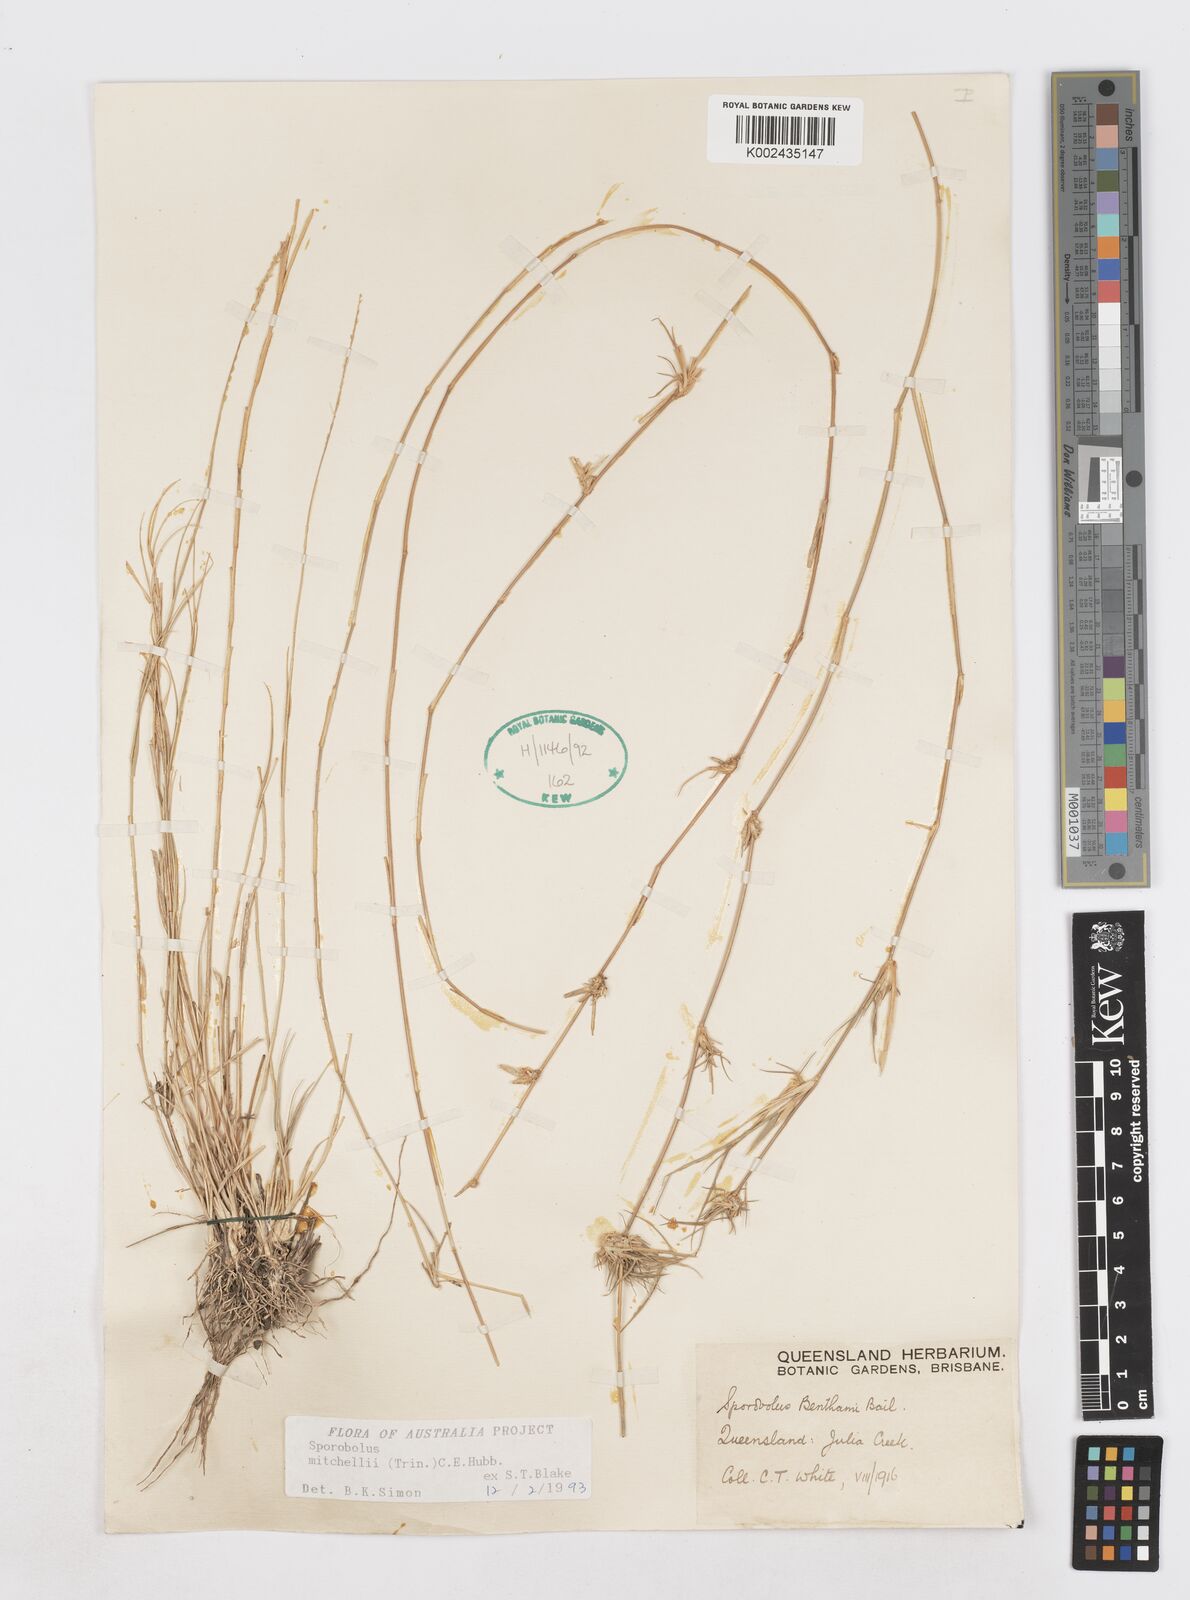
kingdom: Plantae
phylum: Tracheophyta
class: Liliopsida
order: Poales
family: Poaceae
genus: Sporobolus
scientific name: Sporobolus mitchellii
